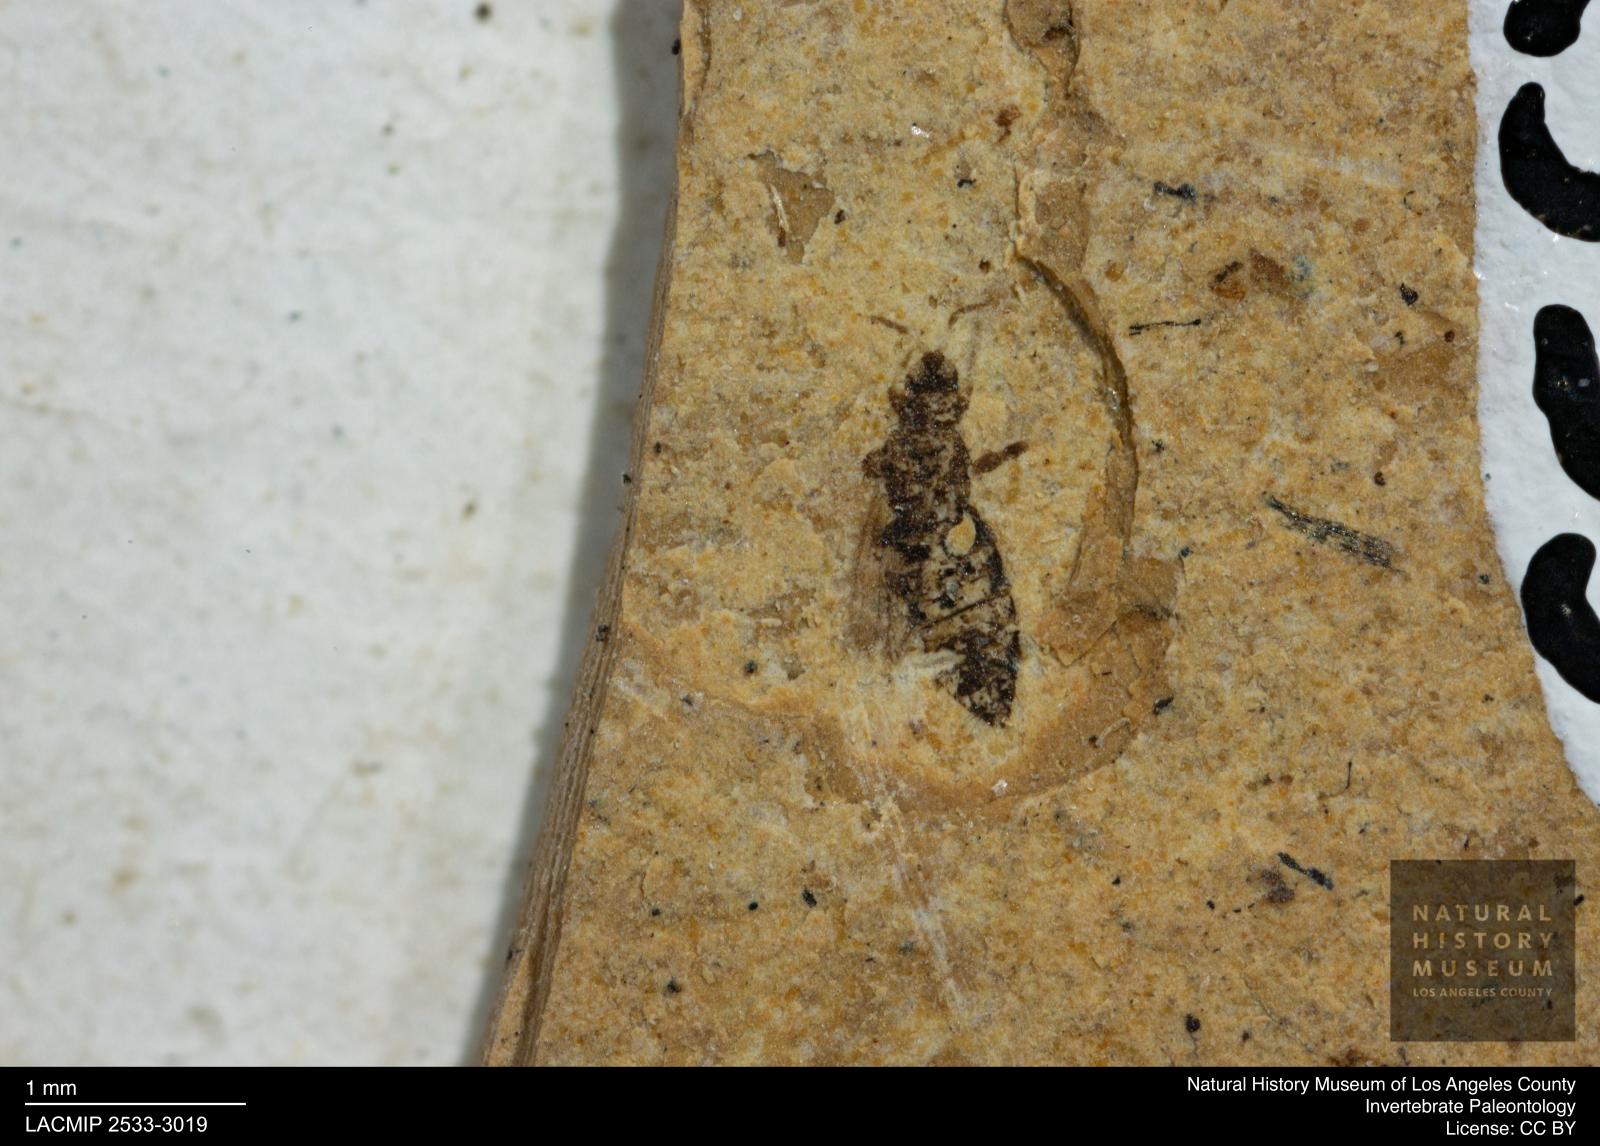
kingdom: Animalia
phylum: Arthropoda
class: Insecta
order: Thysanoptera
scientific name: Thysanoptera
